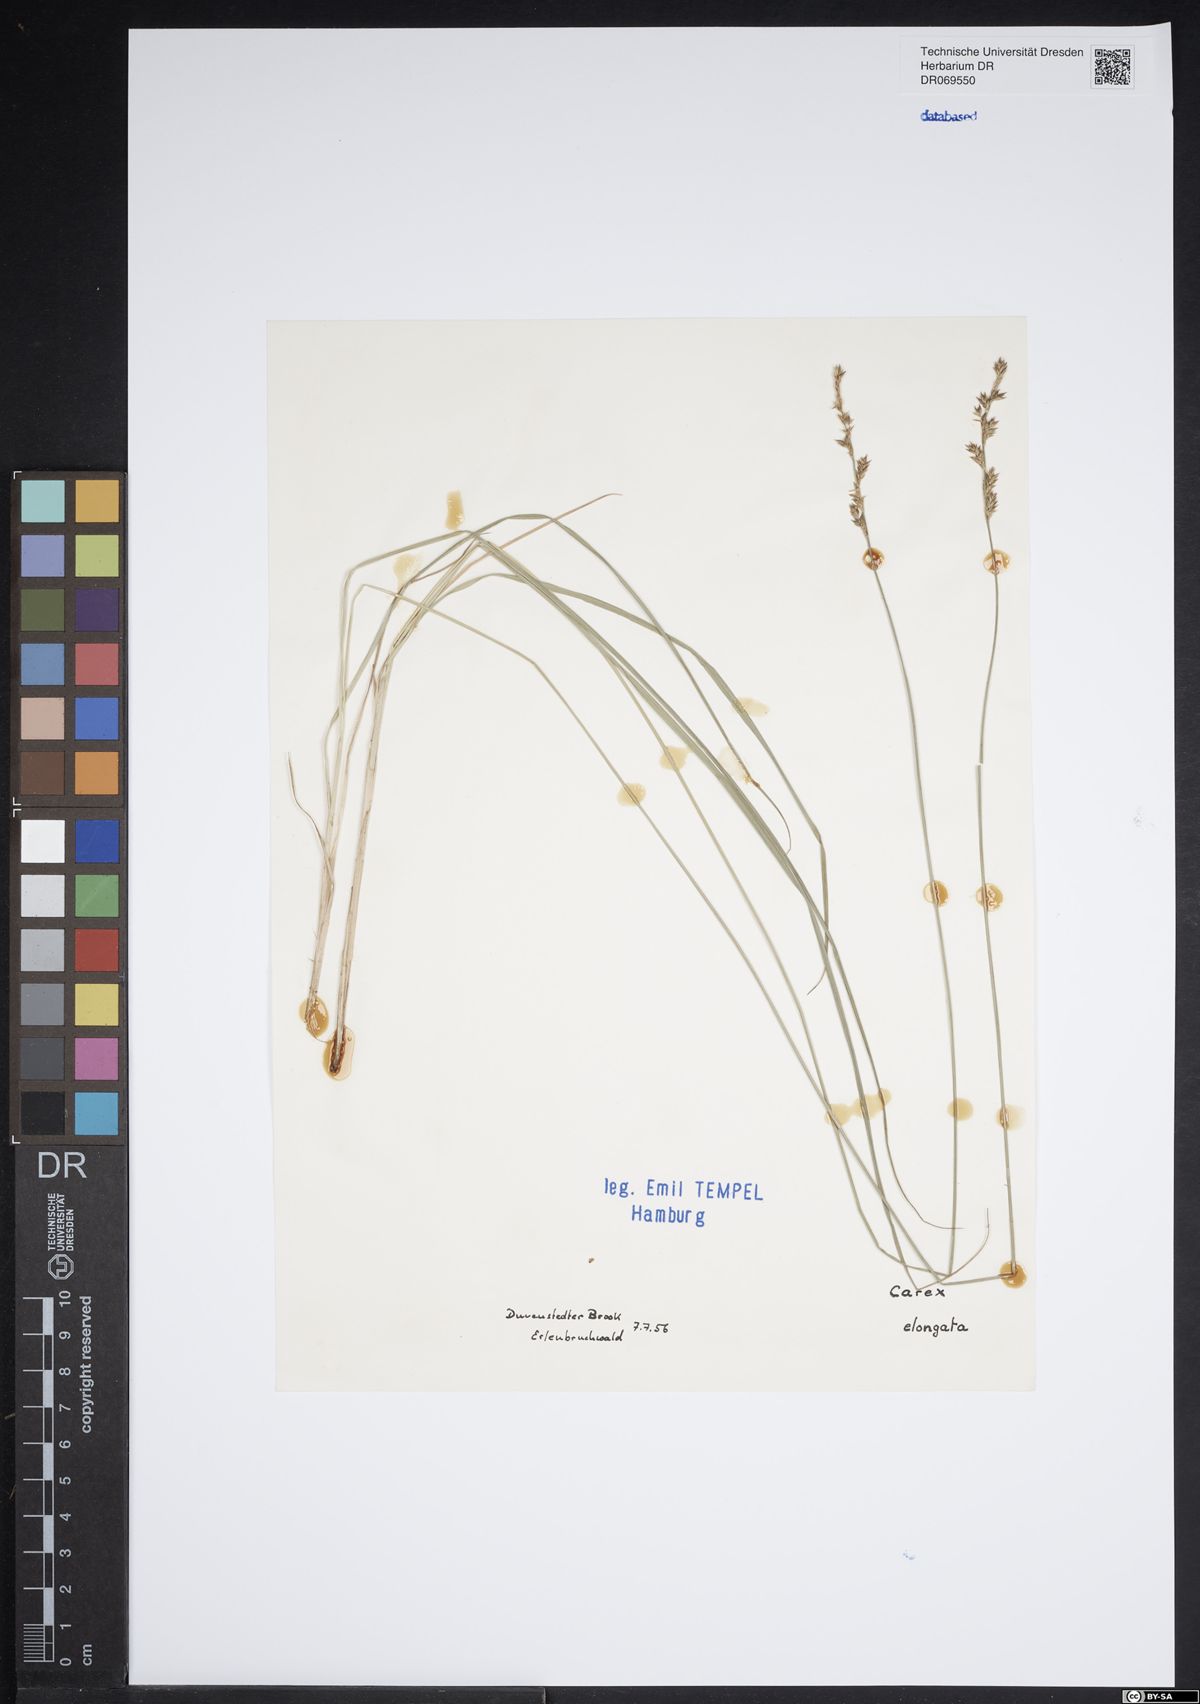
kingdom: Plantae
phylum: Tracheophyta
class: Liliopsida
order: Poales
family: Cyperaceae
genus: Carex
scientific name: Carex elongata
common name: Elongated sedge
